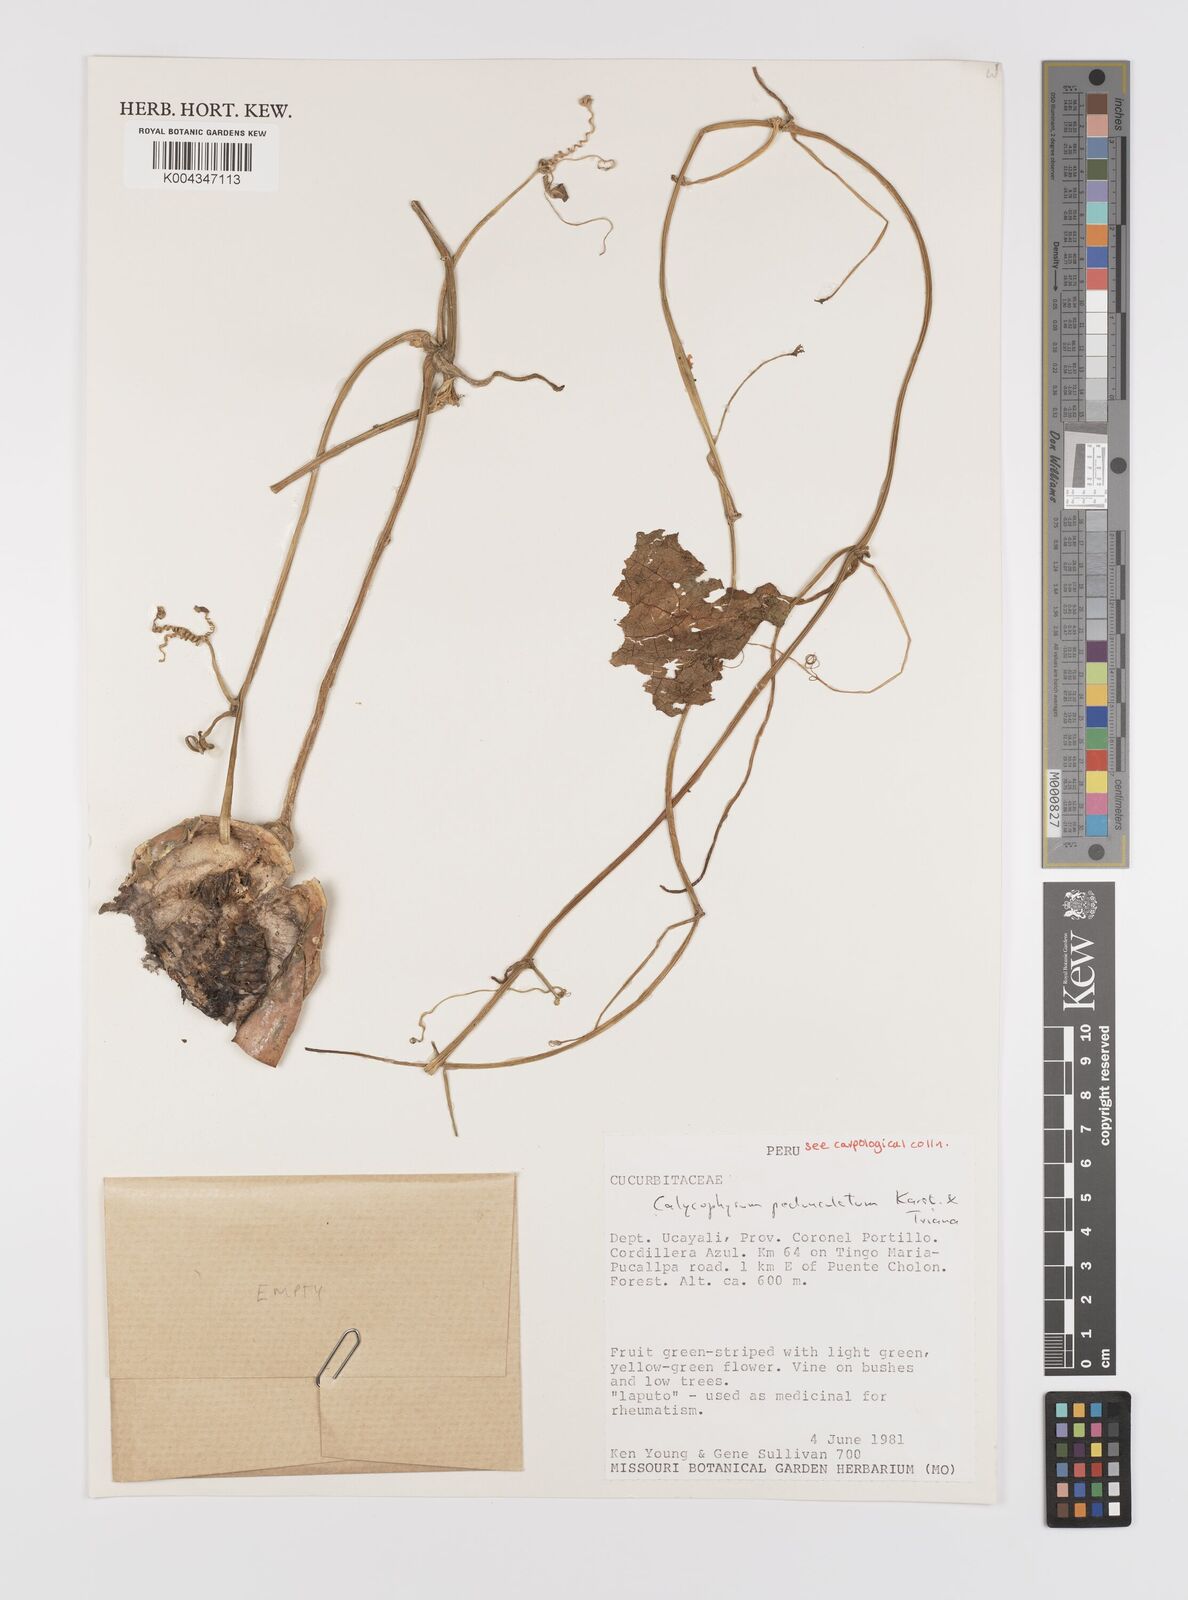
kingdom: Plantae
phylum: Tracheophyta
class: Magnoliopsida
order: Cucurbitales
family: Cucurbitaceae
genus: Calycophysum
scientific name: Calycophysum pedunculatum
